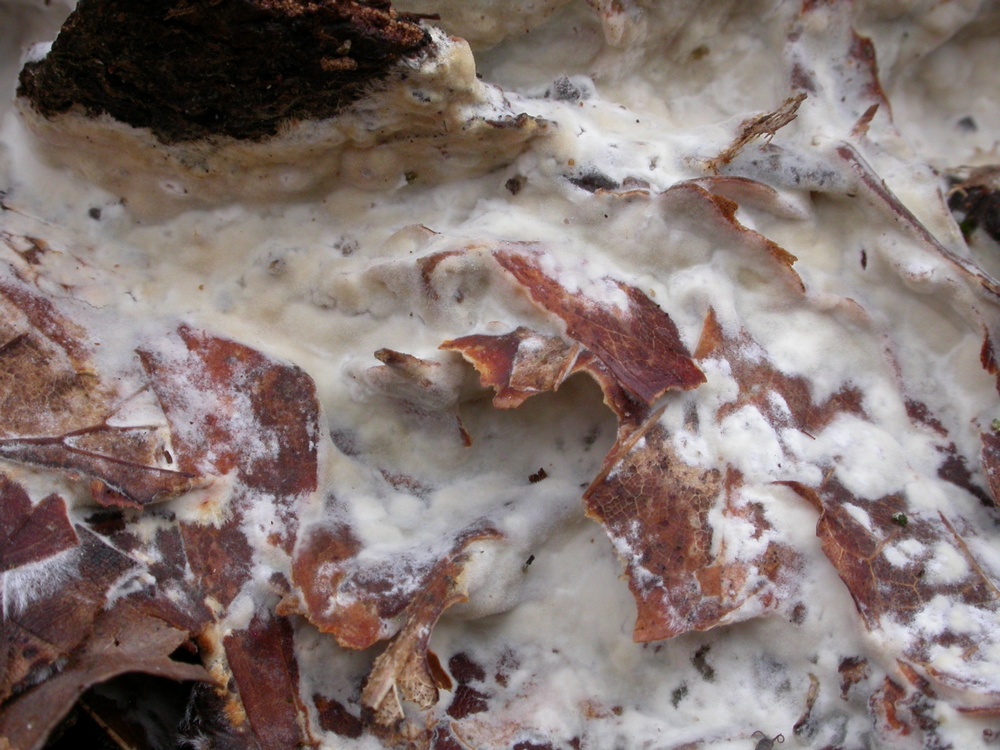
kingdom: Fungi
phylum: Basidiomycota
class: Agaricomycetes
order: Polyporales
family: Phanerochaetaceae
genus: Phanerochaete
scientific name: Phanerochaete velutina
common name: dunet randtråd
